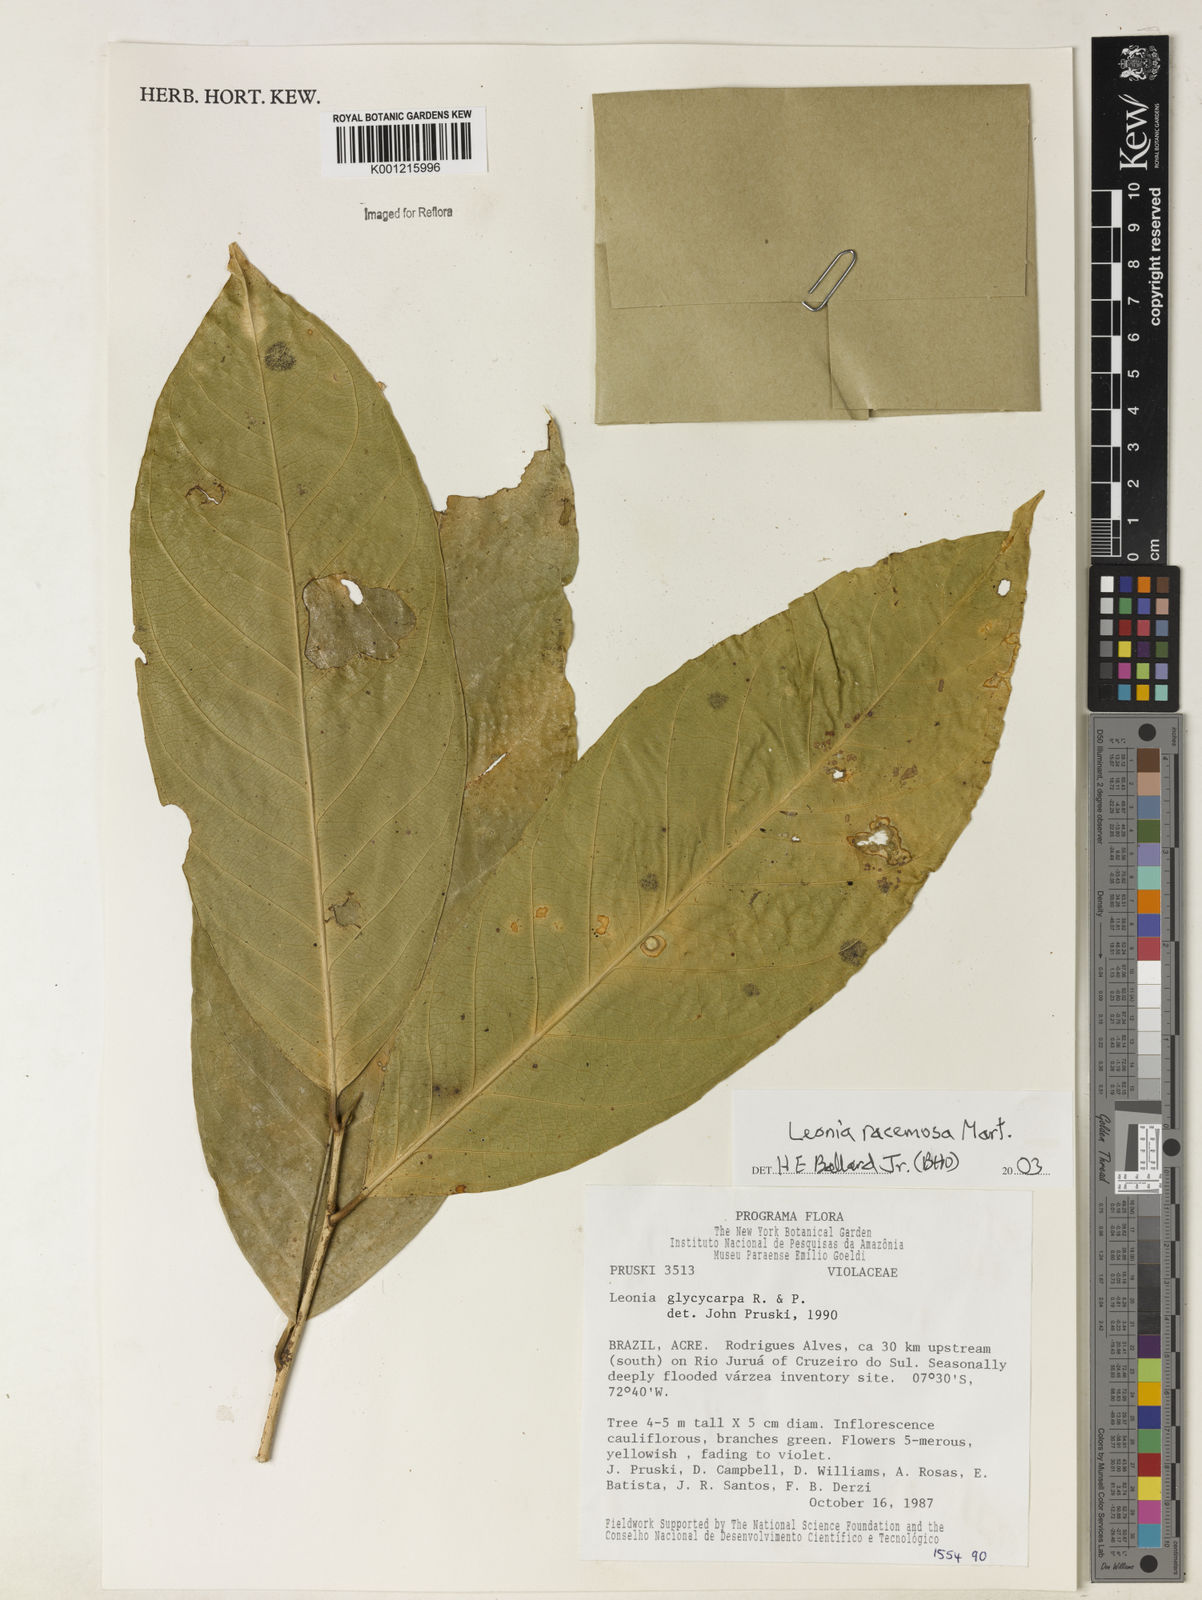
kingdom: Plantae
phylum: Tracheophyta
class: Magnoliopsida
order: Malpighiales
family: Violaceae
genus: Leonia
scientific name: Leonia glycycarpa
